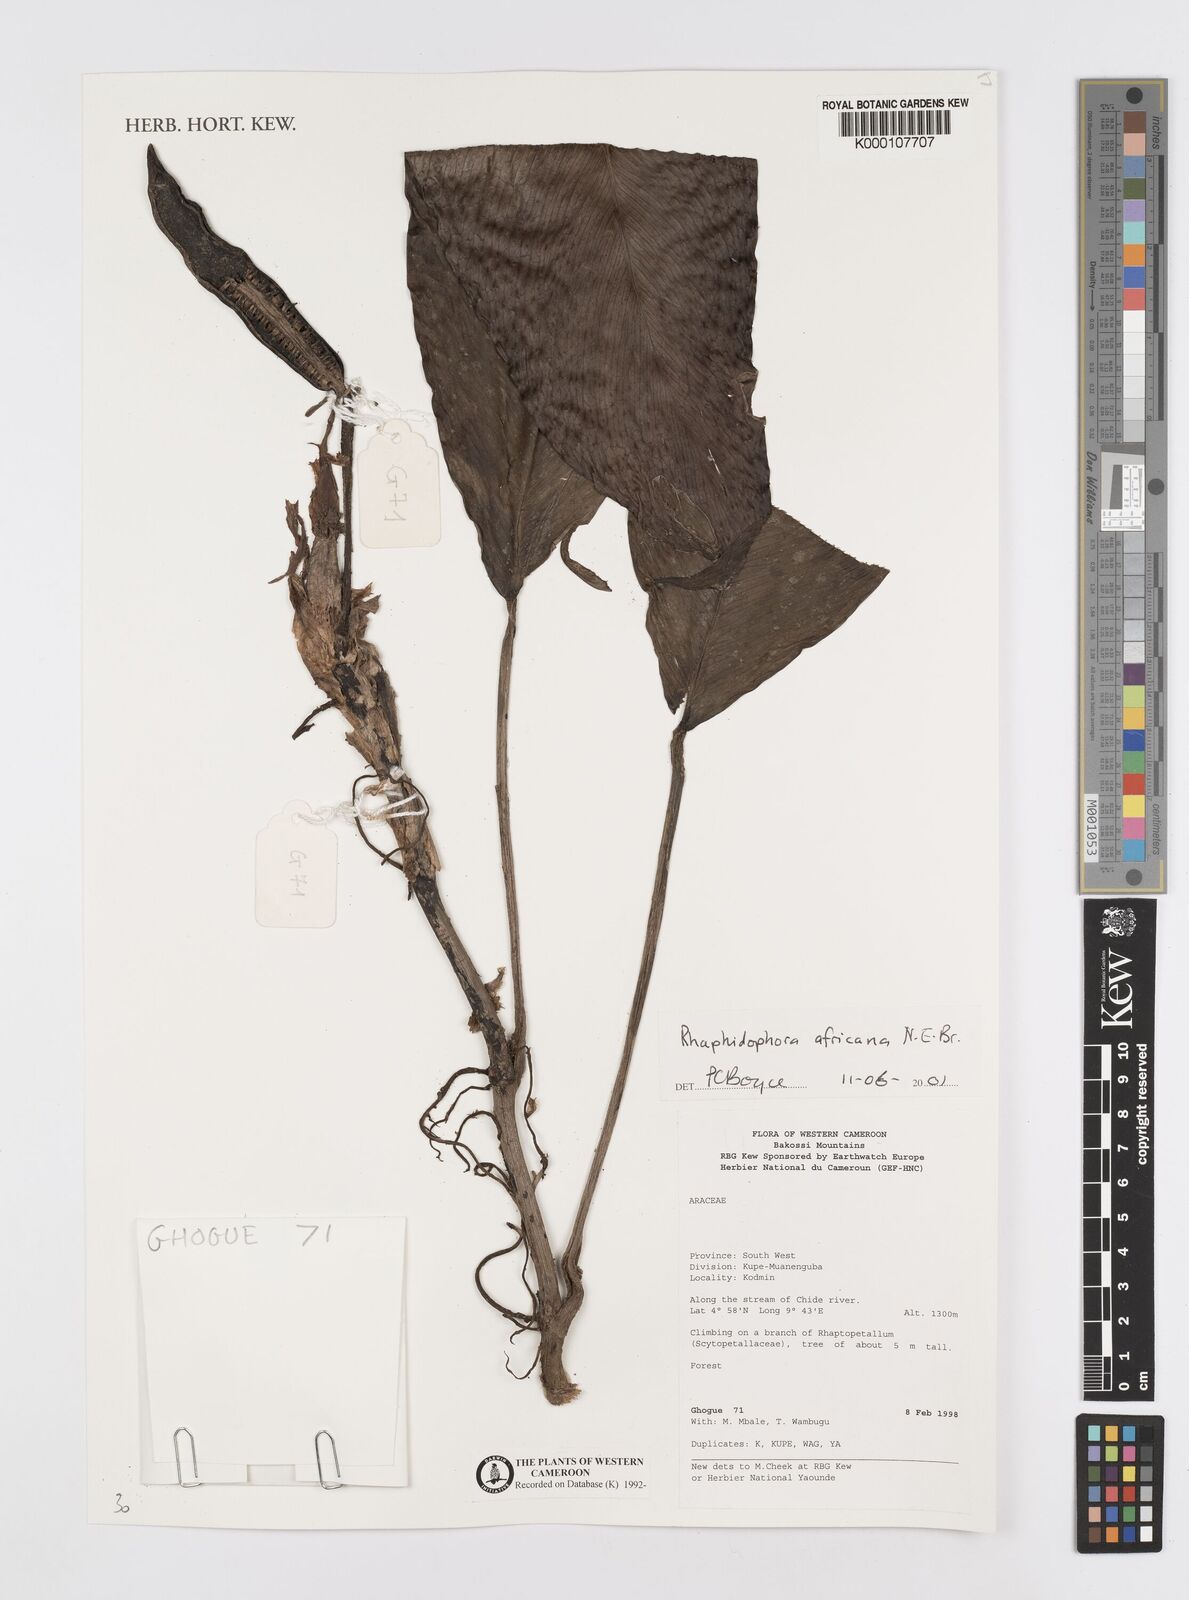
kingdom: Plantae
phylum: Tracheophyta
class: Liliopsida
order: Alismatales
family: Araceae
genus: Rhaphidophora
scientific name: Rhaphidophora africana
